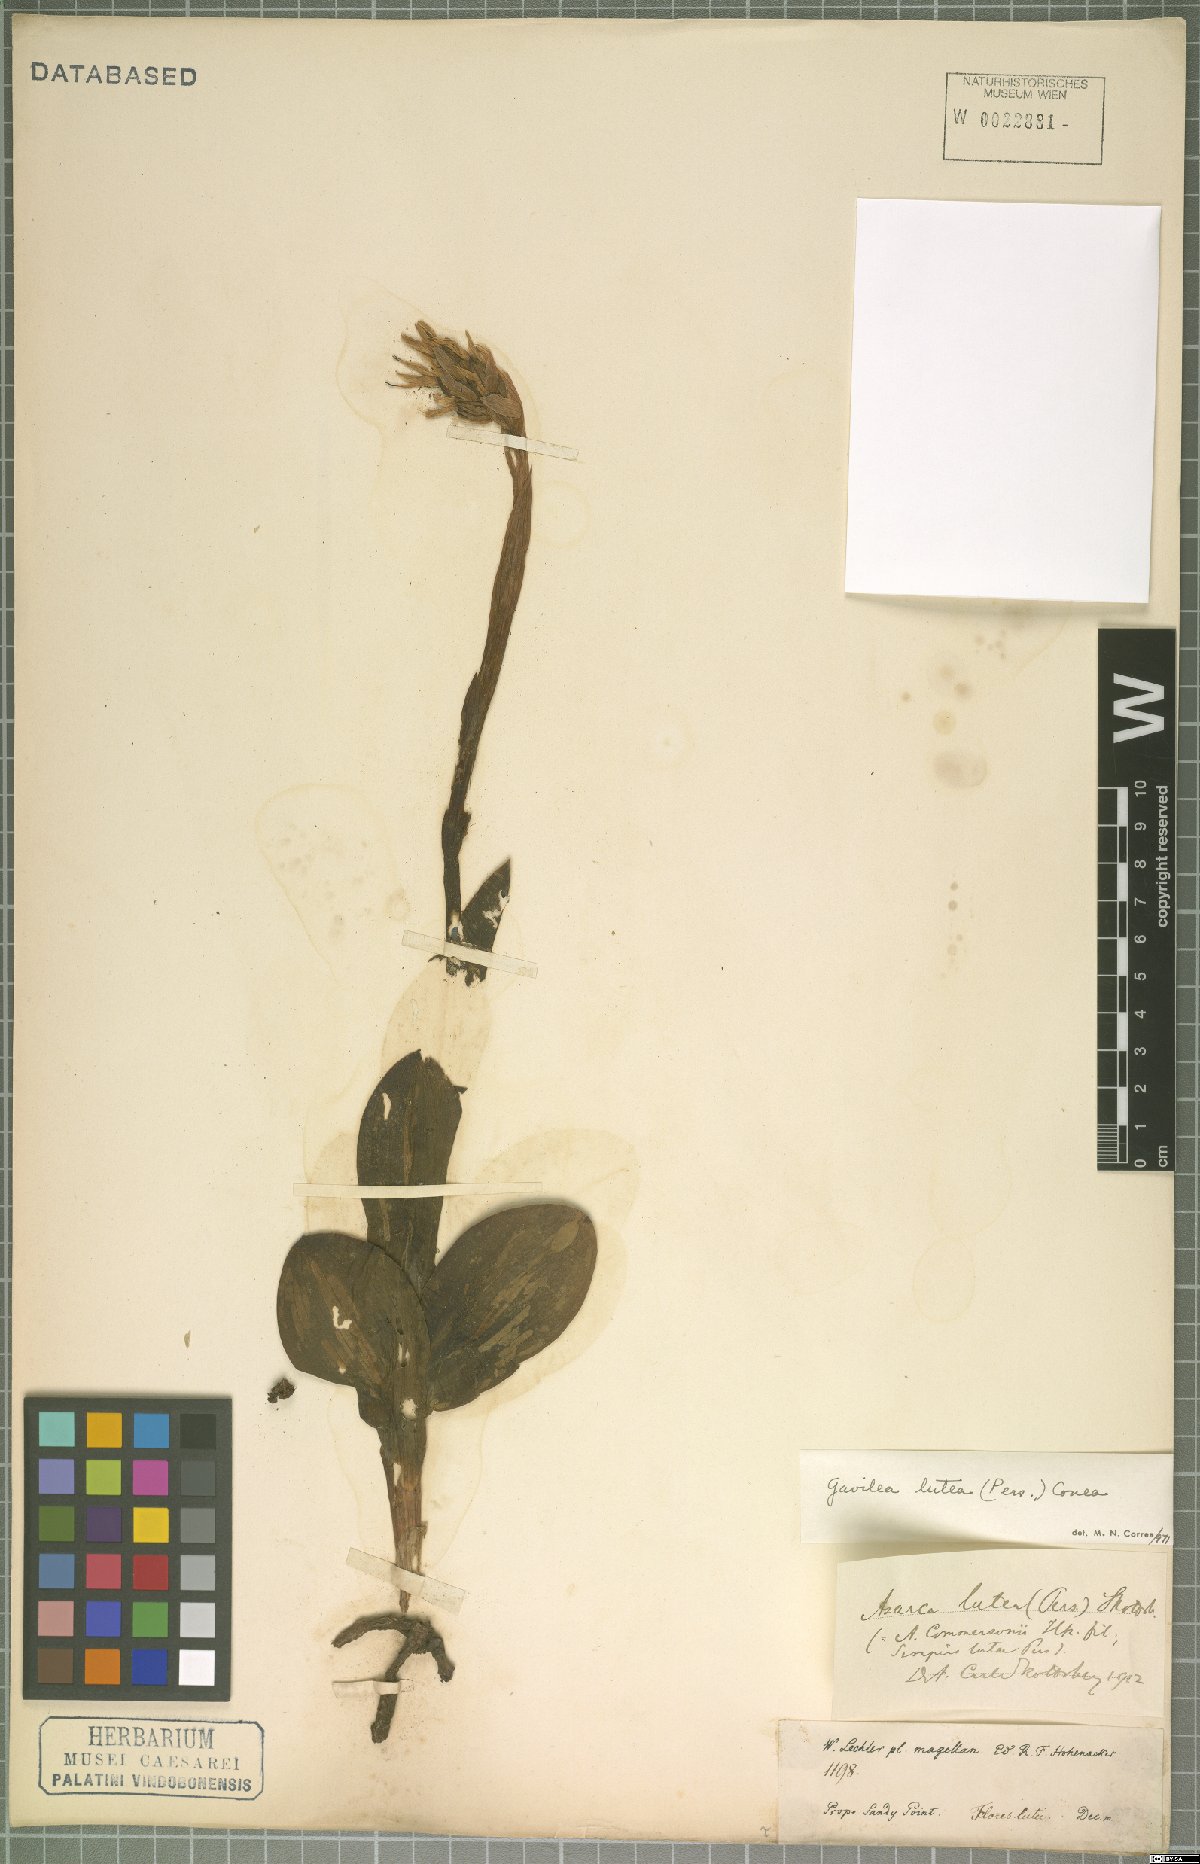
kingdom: Plantae
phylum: Tracheophyta
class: Liliopsida
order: Asparagales
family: Orchidaceae
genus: Gavilea
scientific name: Gavilea lutea
